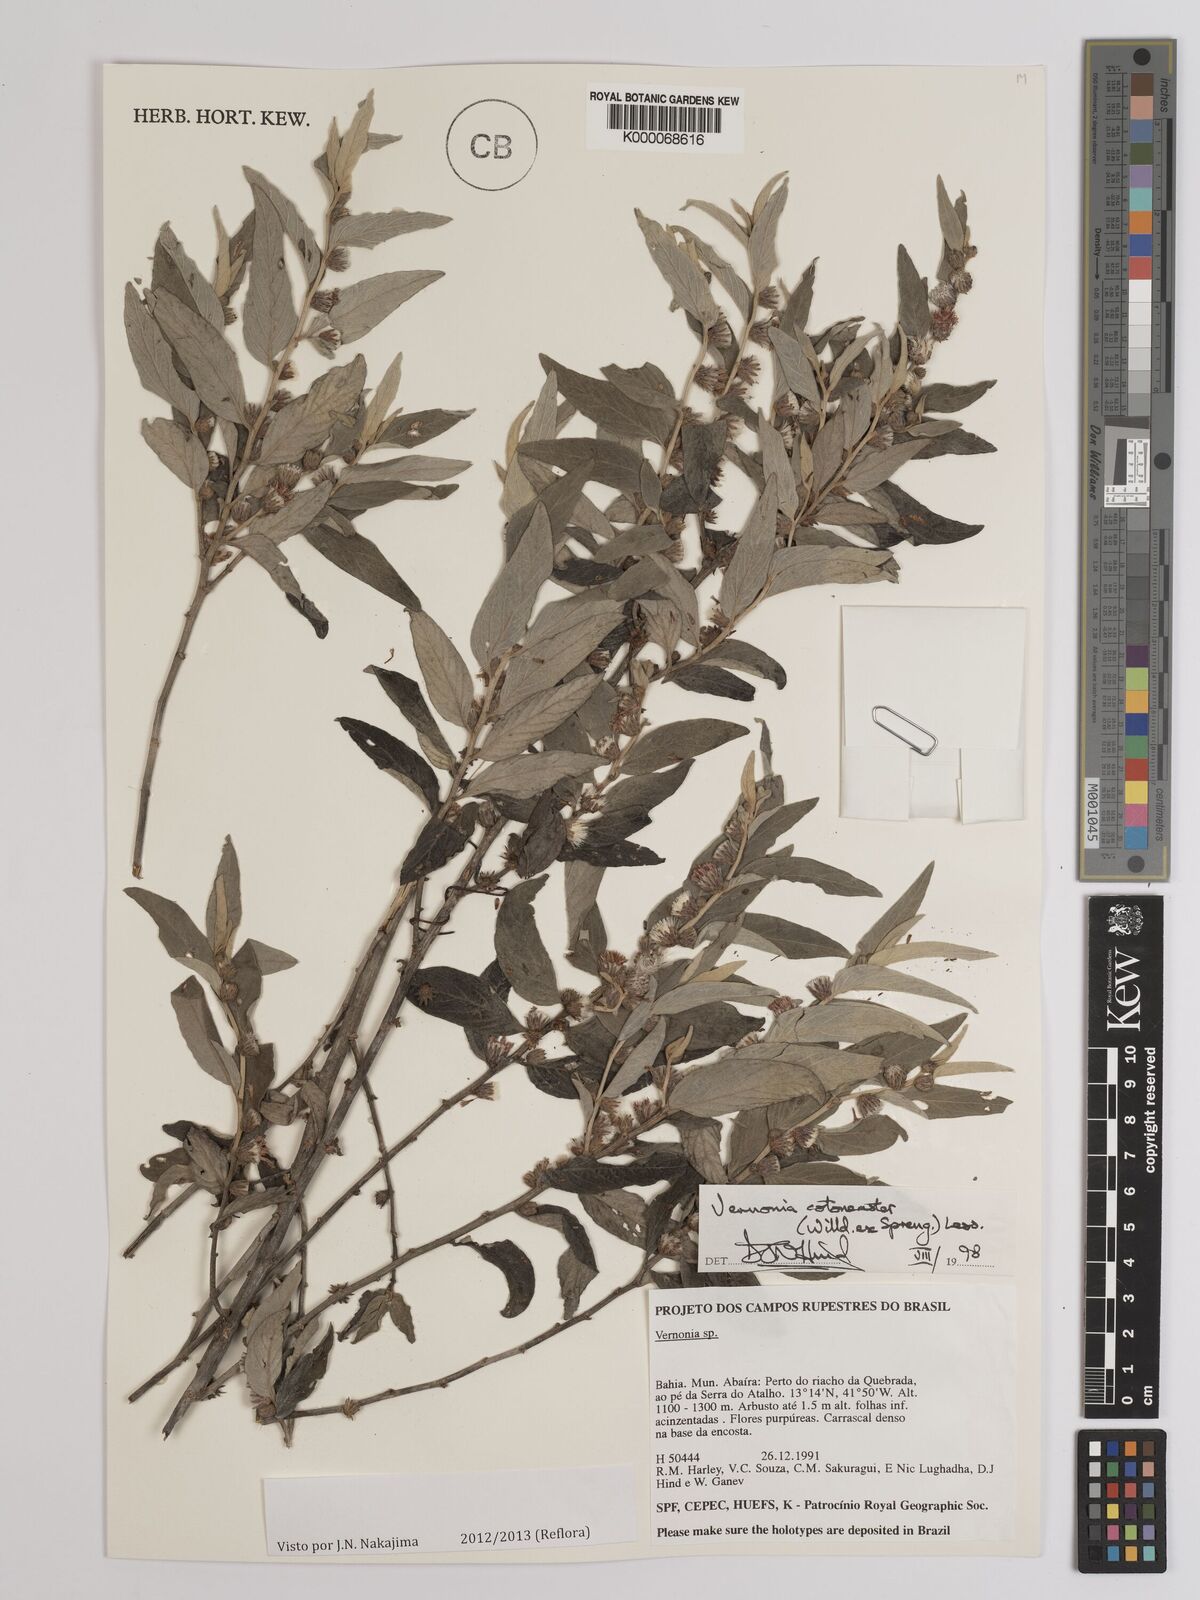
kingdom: Plantae
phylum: Tracheophyta
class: Magnoliopsida
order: Asterales
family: Asteraceae
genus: Lepidaploa
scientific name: Lepidaploa cotoneaster
